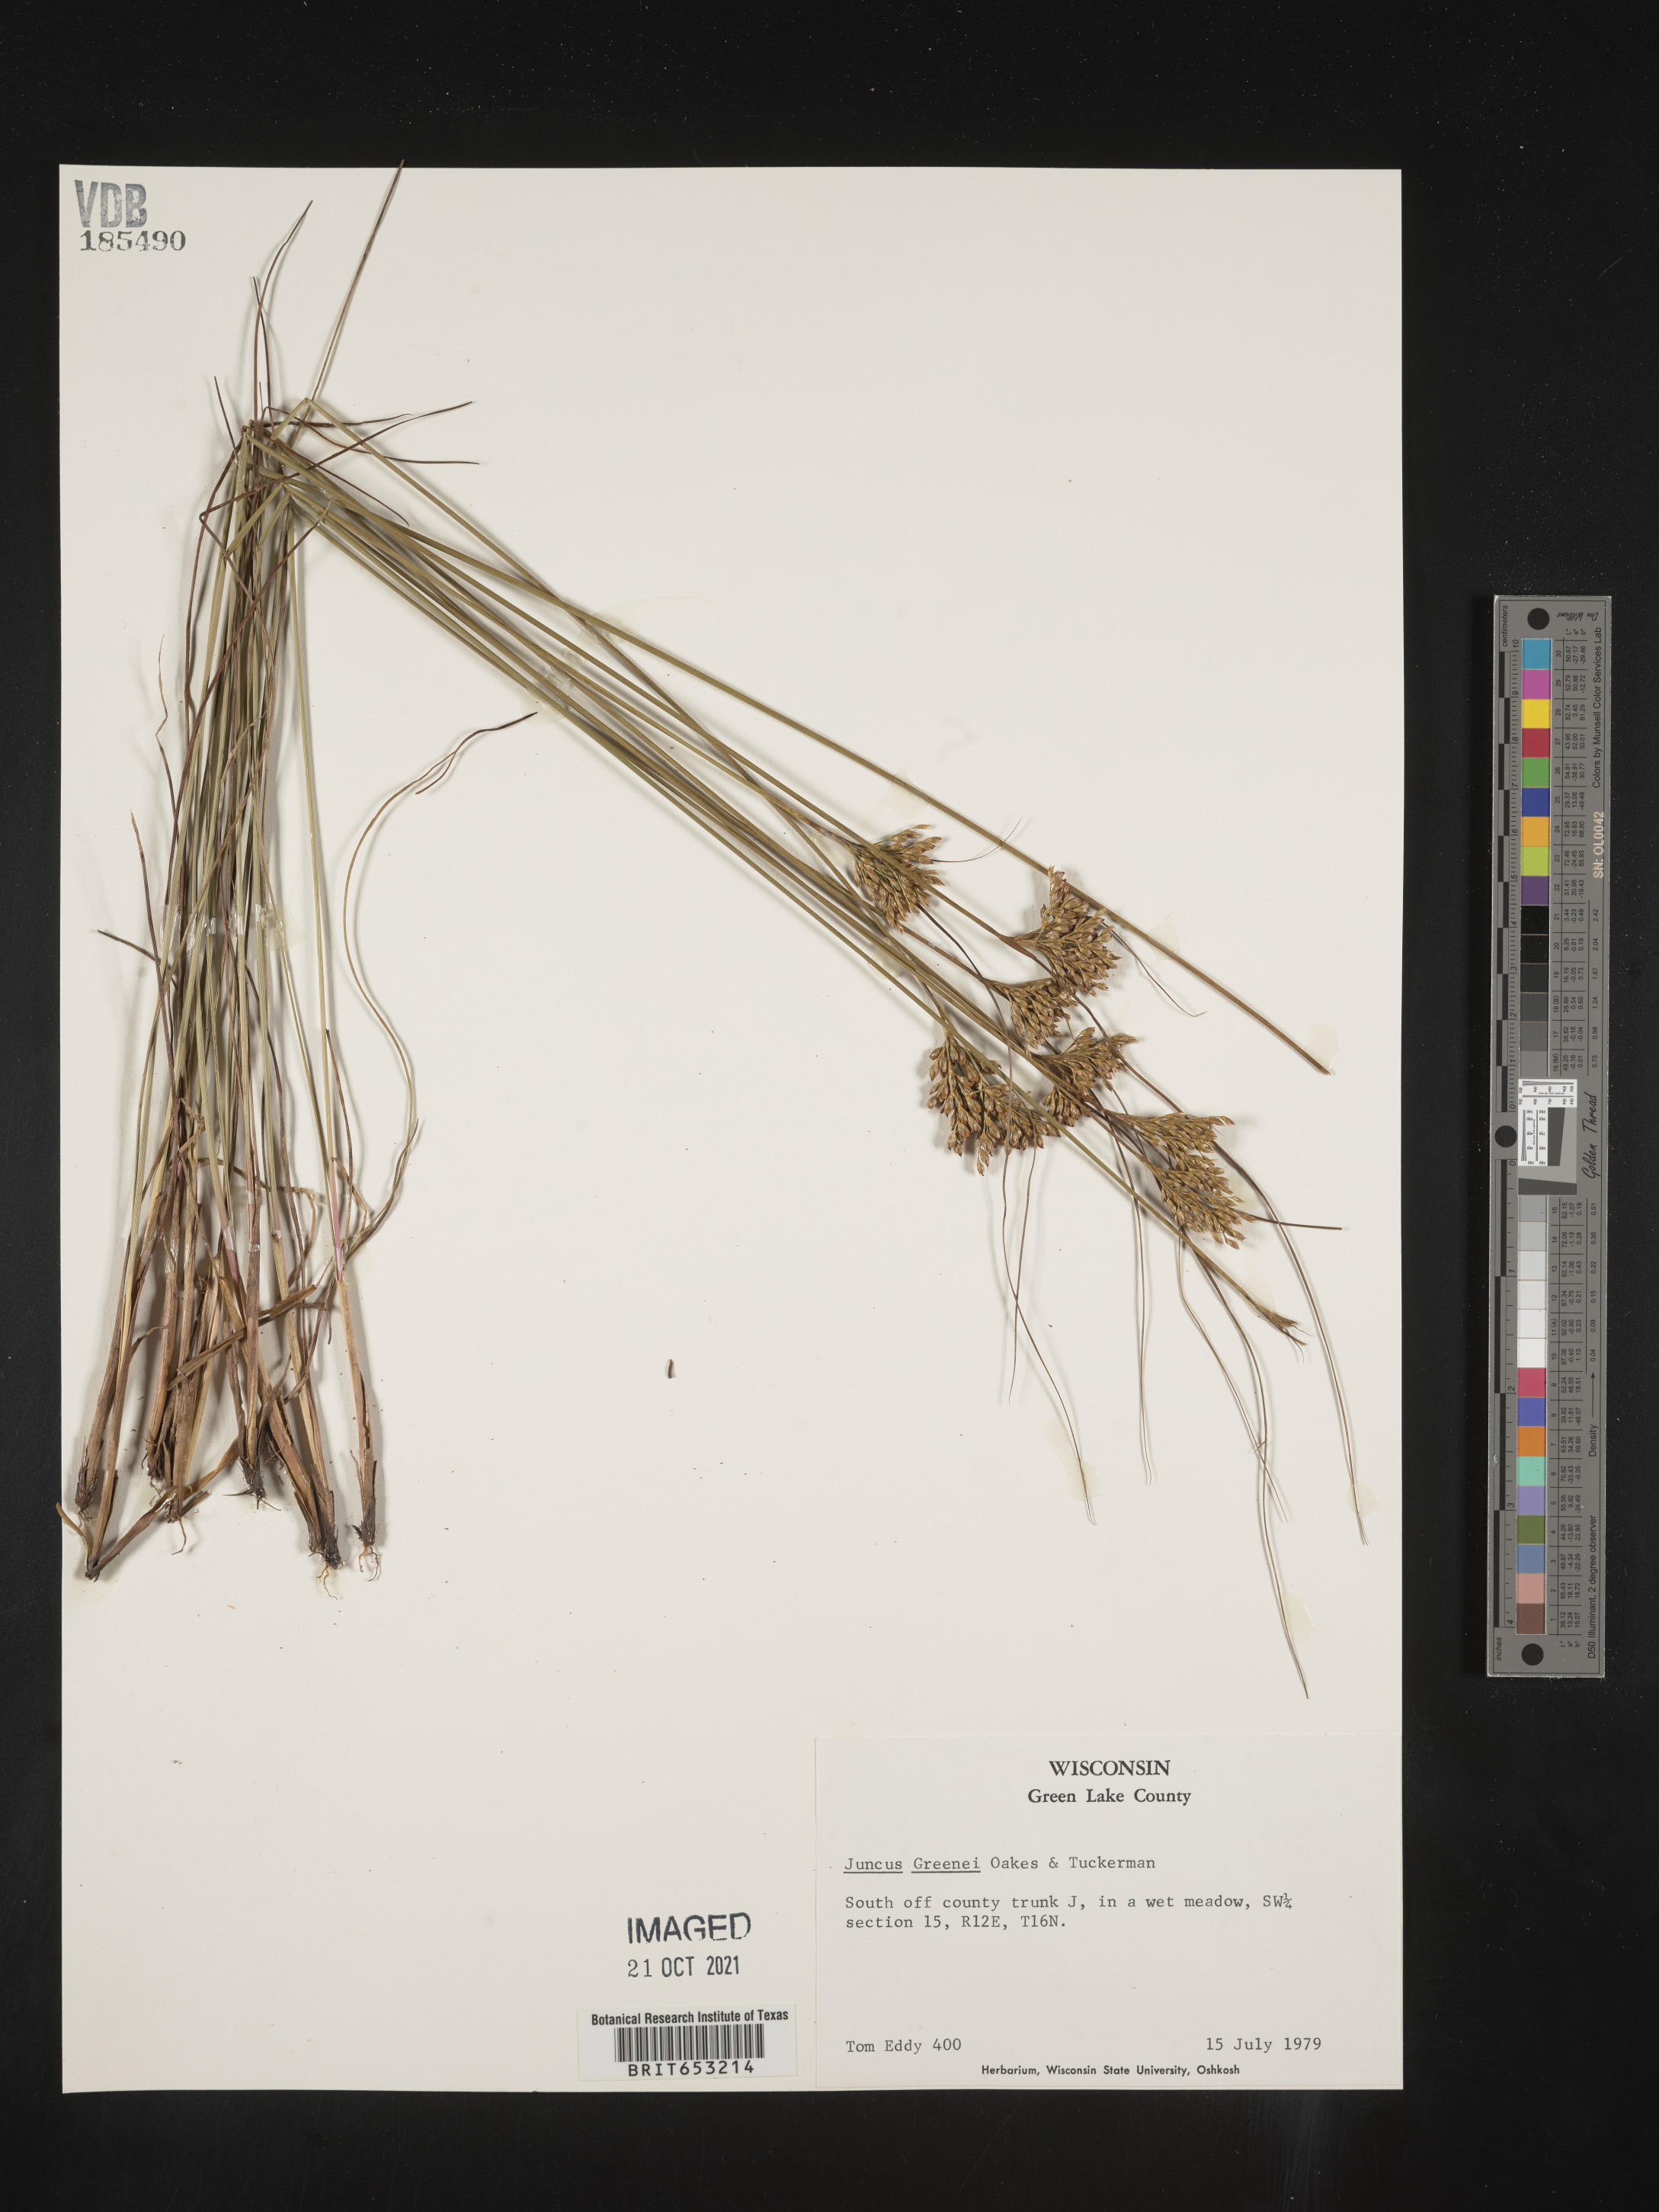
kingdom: Plantae
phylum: Tracheophyta
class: Liliopsida
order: Poales
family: Juncaceae
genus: Juncus
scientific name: Juncus greenei
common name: Greene's rush
